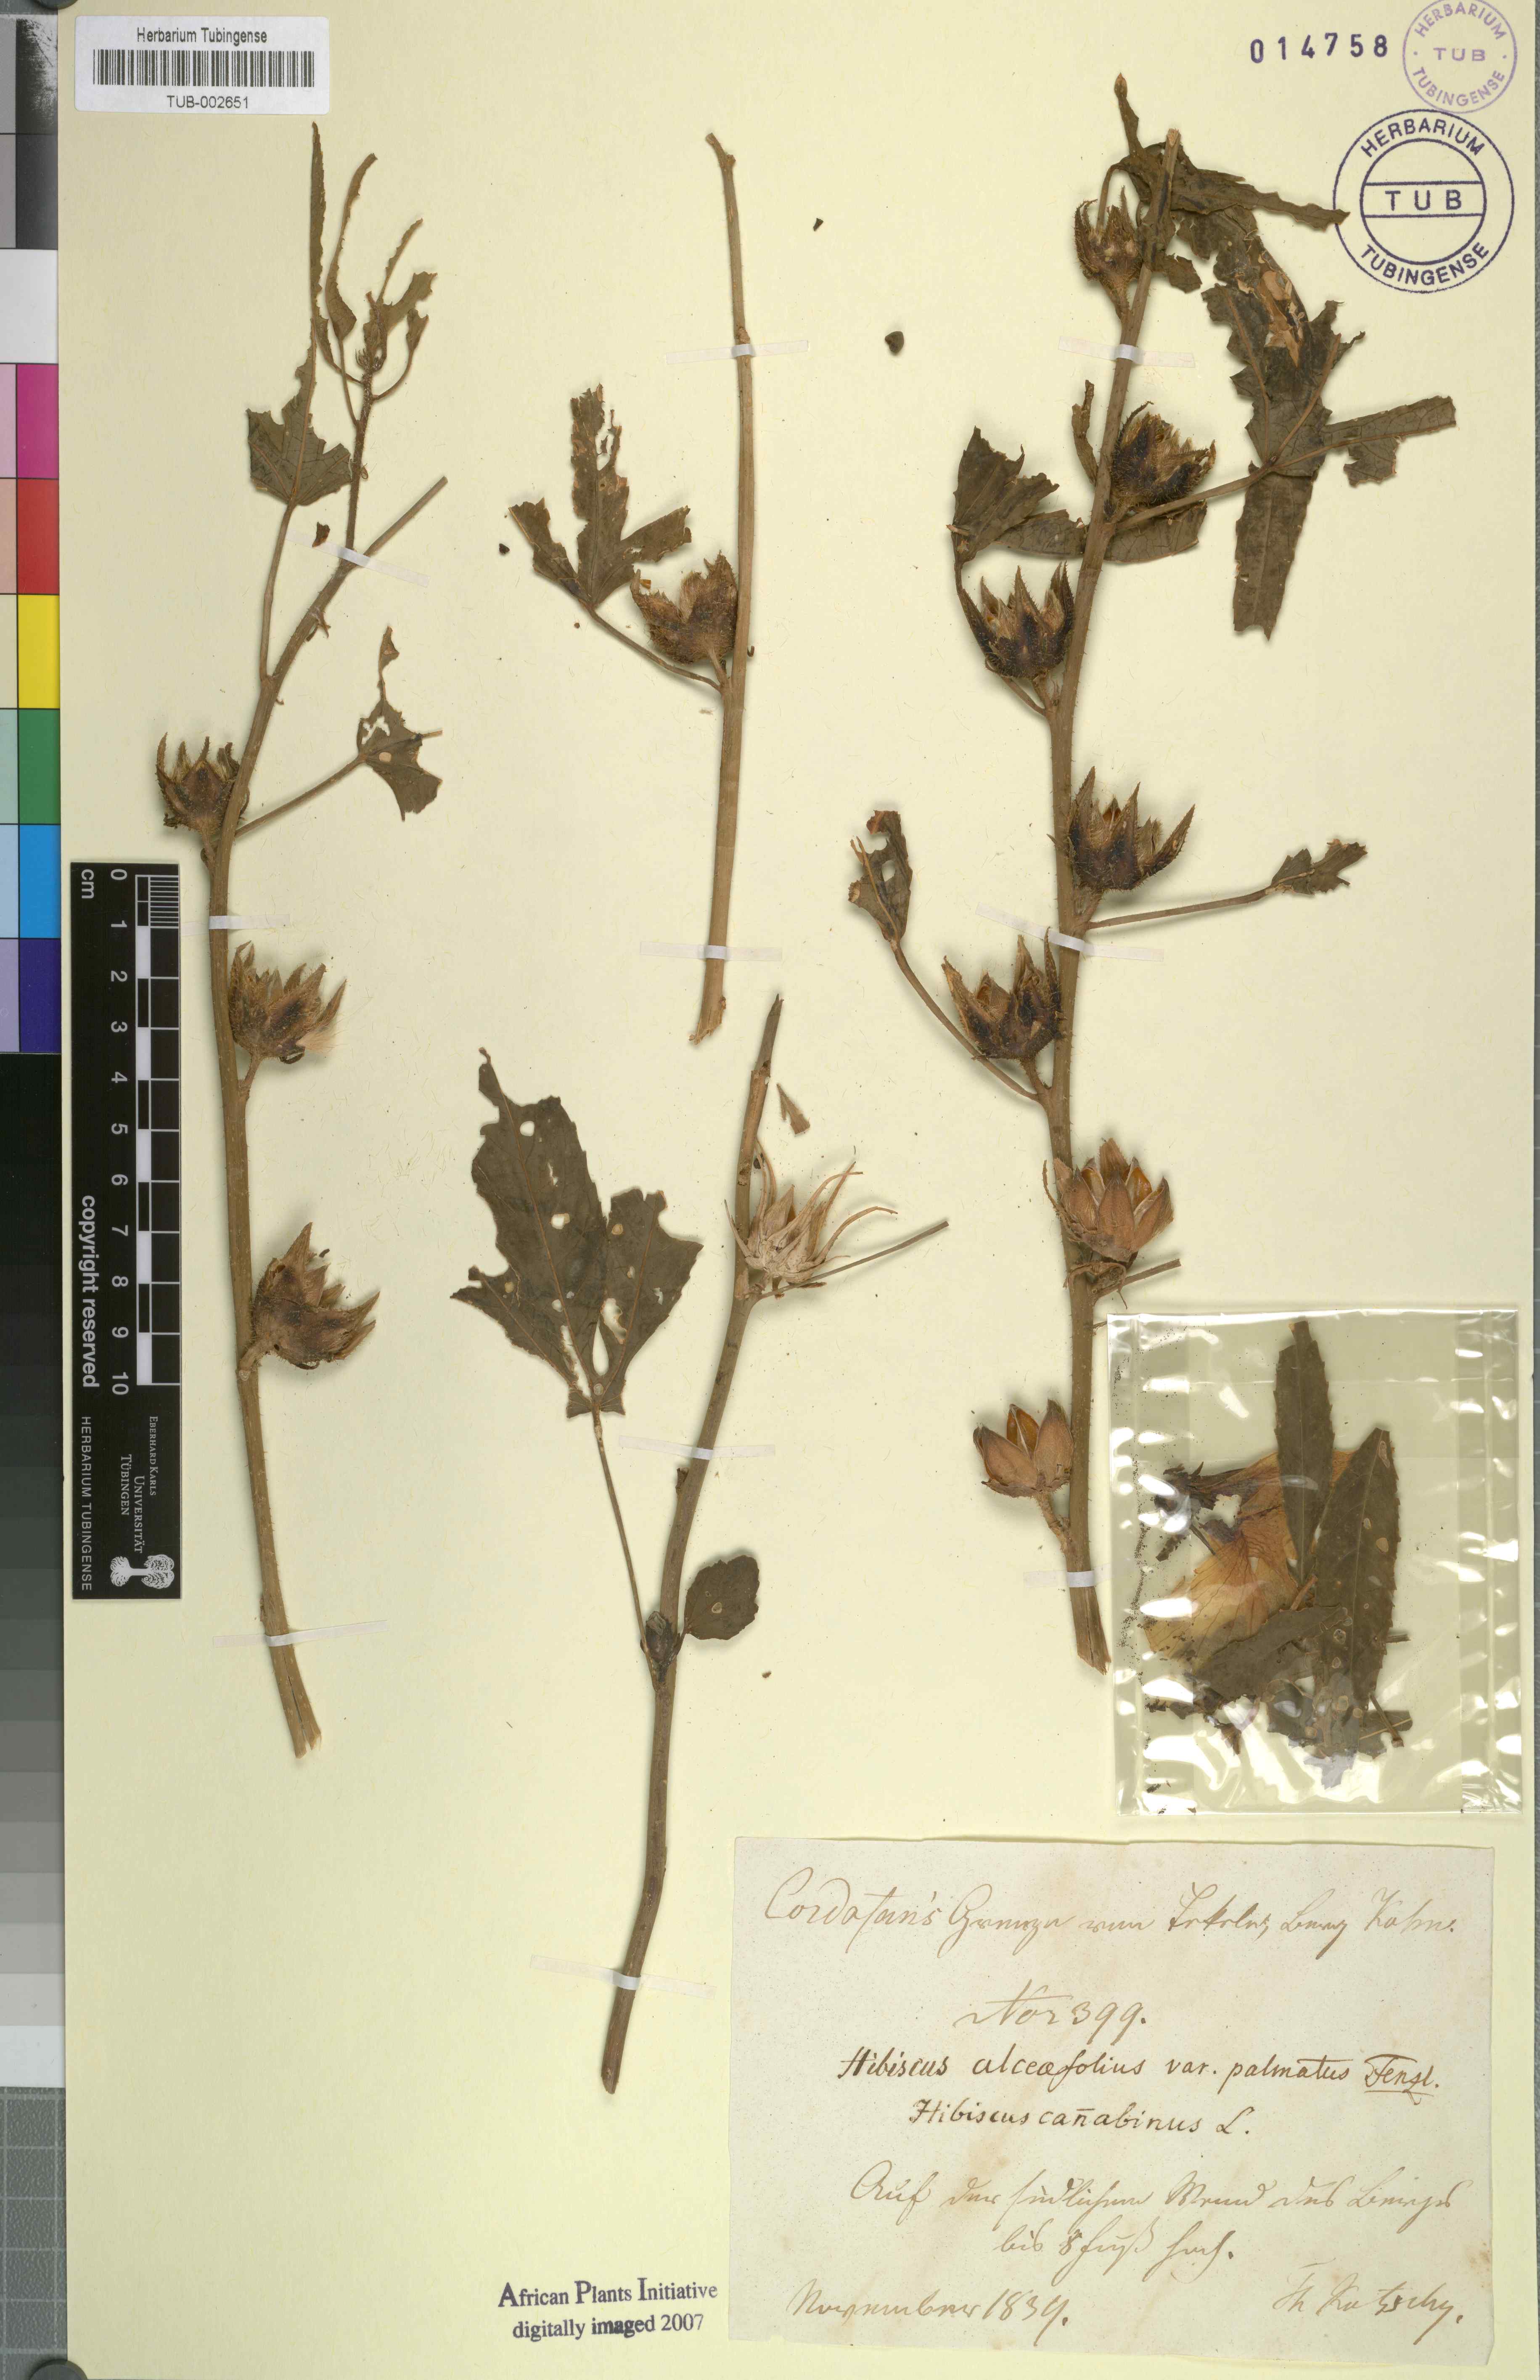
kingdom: Plantae
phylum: Tracheophyta
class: Magnoliopsida
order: Malvales
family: Malvaceae
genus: Hibiscus
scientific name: Hibiscus cannabinus
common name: Brown indianhemp
